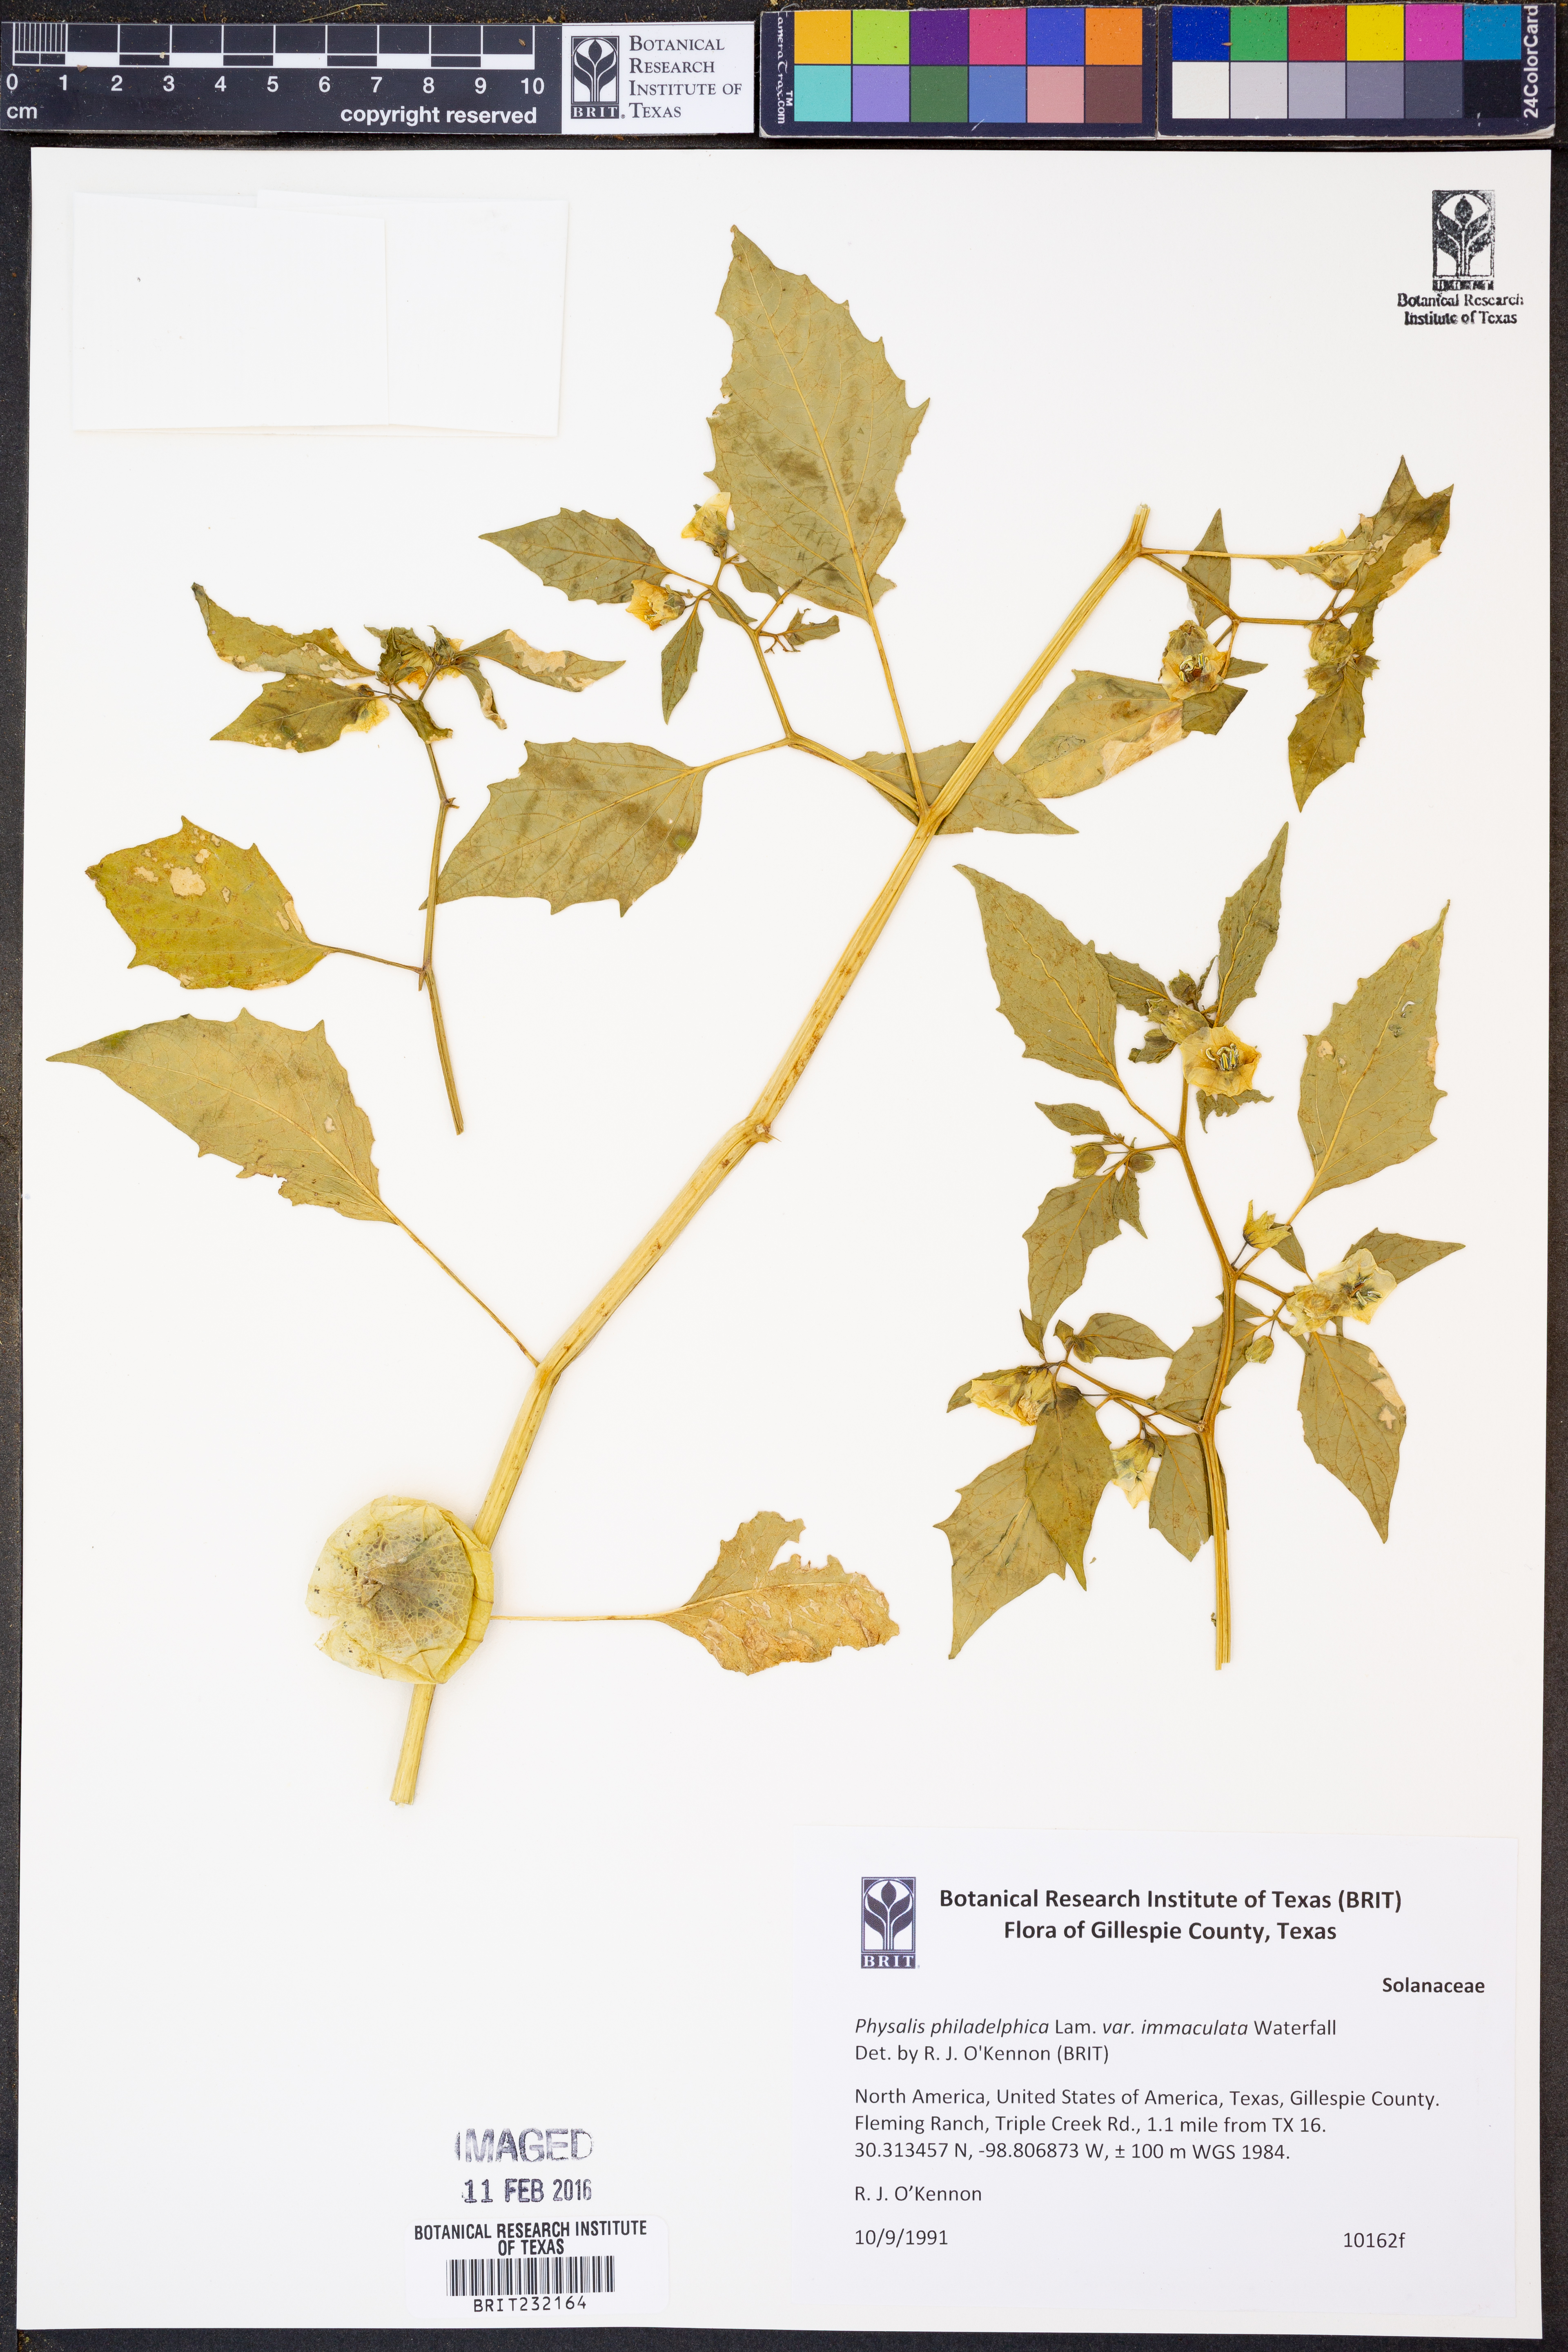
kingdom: Plantae
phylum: Tracheophyta
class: Magnoliopsida
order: Solanales
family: Solanaceae
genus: Physalis
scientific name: Physalis philadelphica
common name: Husk-tomato
